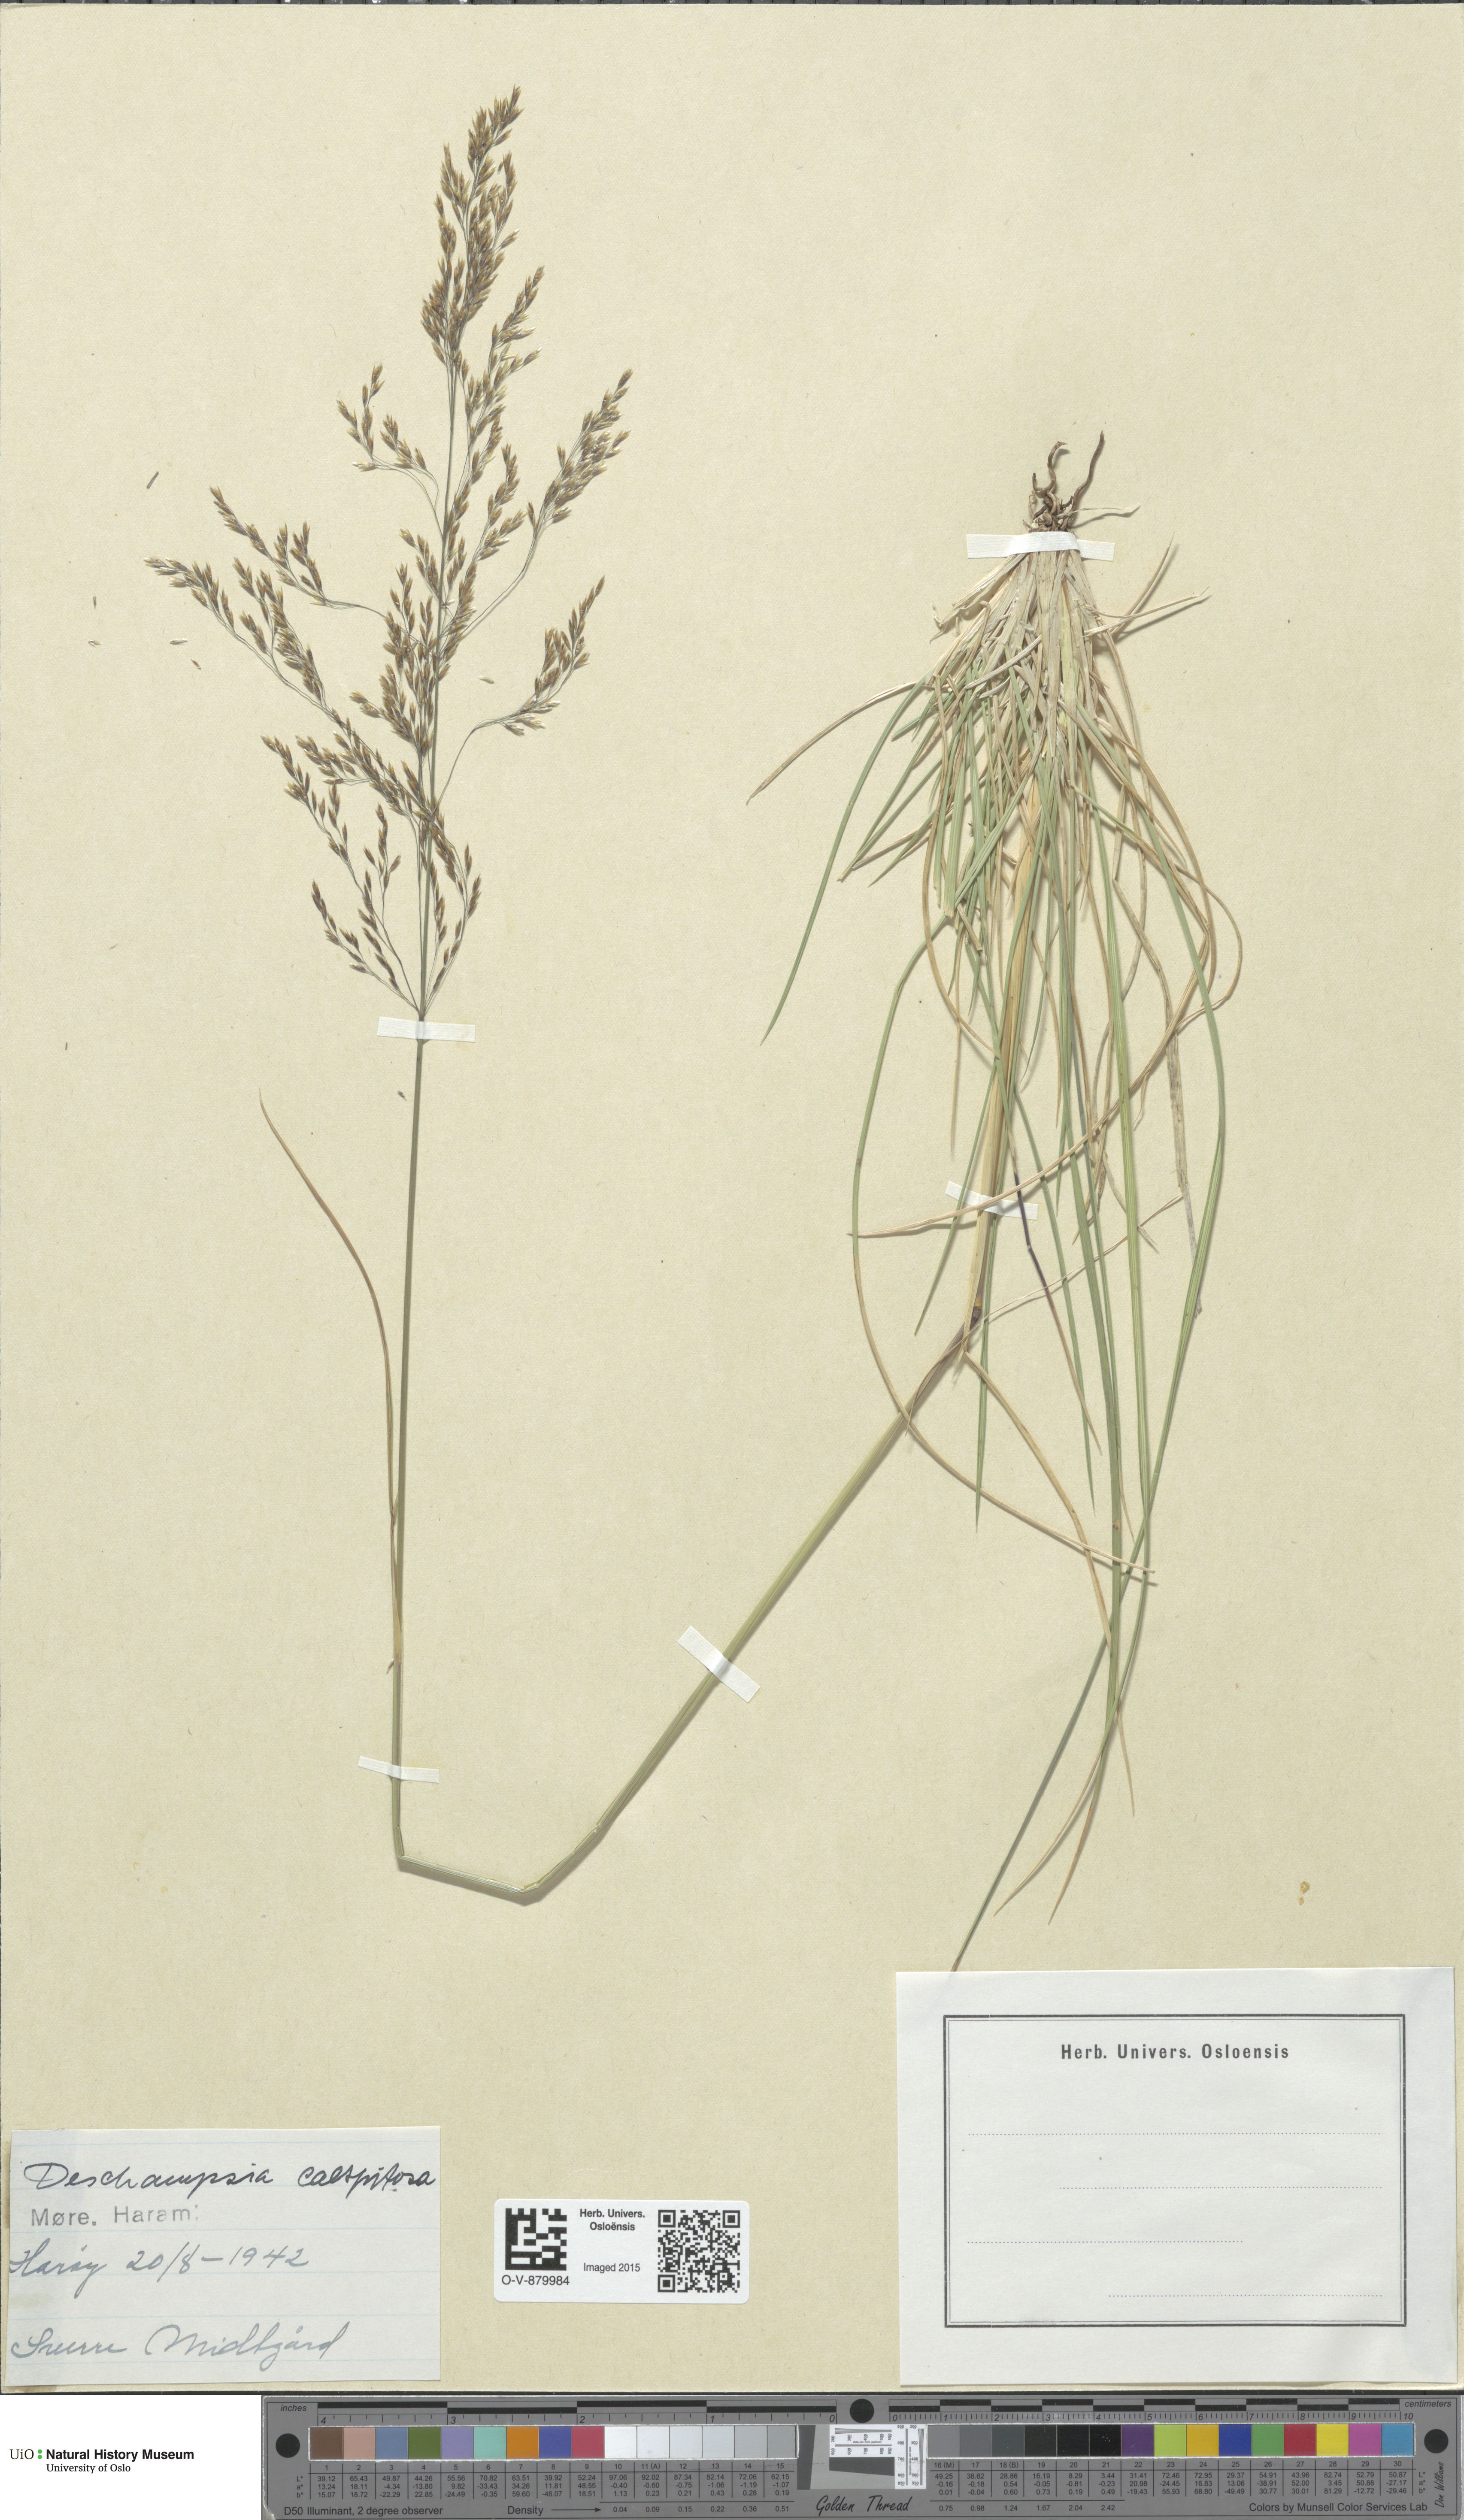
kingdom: Plantae
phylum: Tracheophyta
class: Liliopsida
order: Poales
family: Poaceae
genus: Deschampsia
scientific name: Deschampsia cespitosa
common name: Tufted hair-grass
